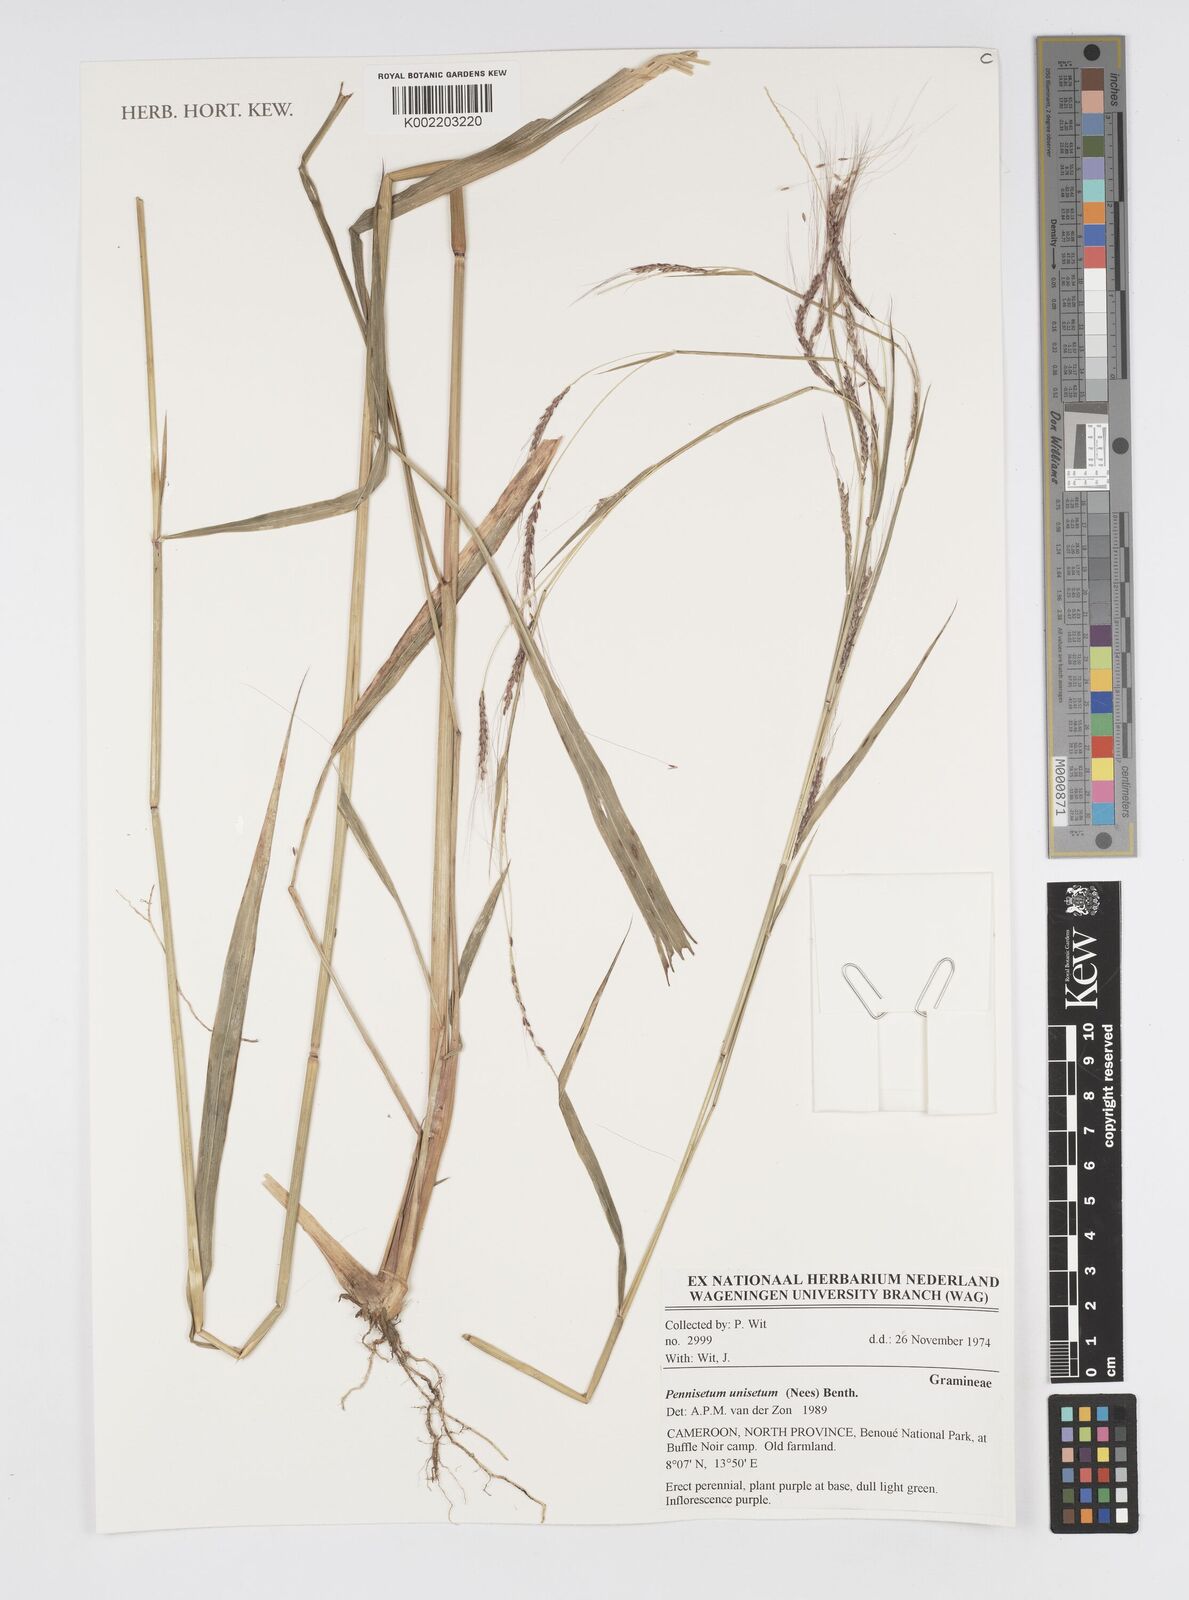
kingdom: Plantae
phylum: Tracheophyta
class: Liliopsida
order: Poales
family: Poaceae
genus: Cenchrus
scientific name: Cenchrus unisetus
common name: Natal grass
